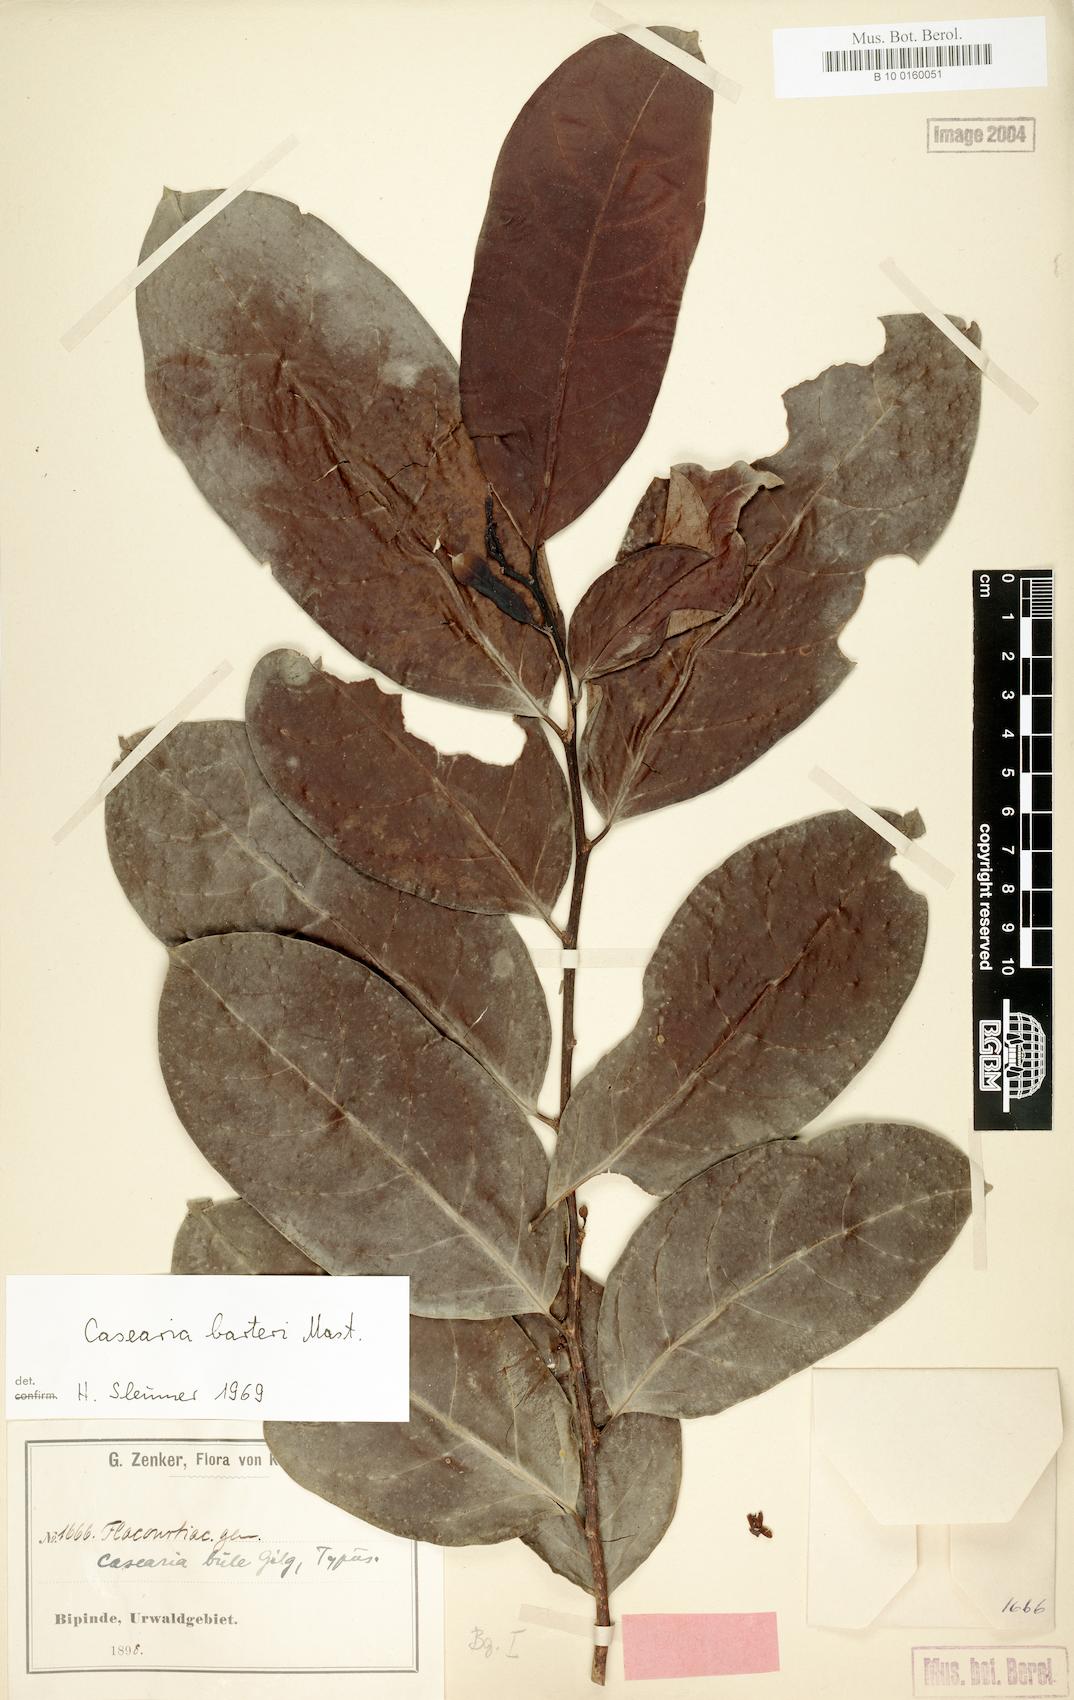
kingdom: Plantae
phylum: Tracheophyta
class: Magnoliopsida
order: Malpighiales
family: Salicaceae
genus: Casearia
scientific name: Casearia barteri
